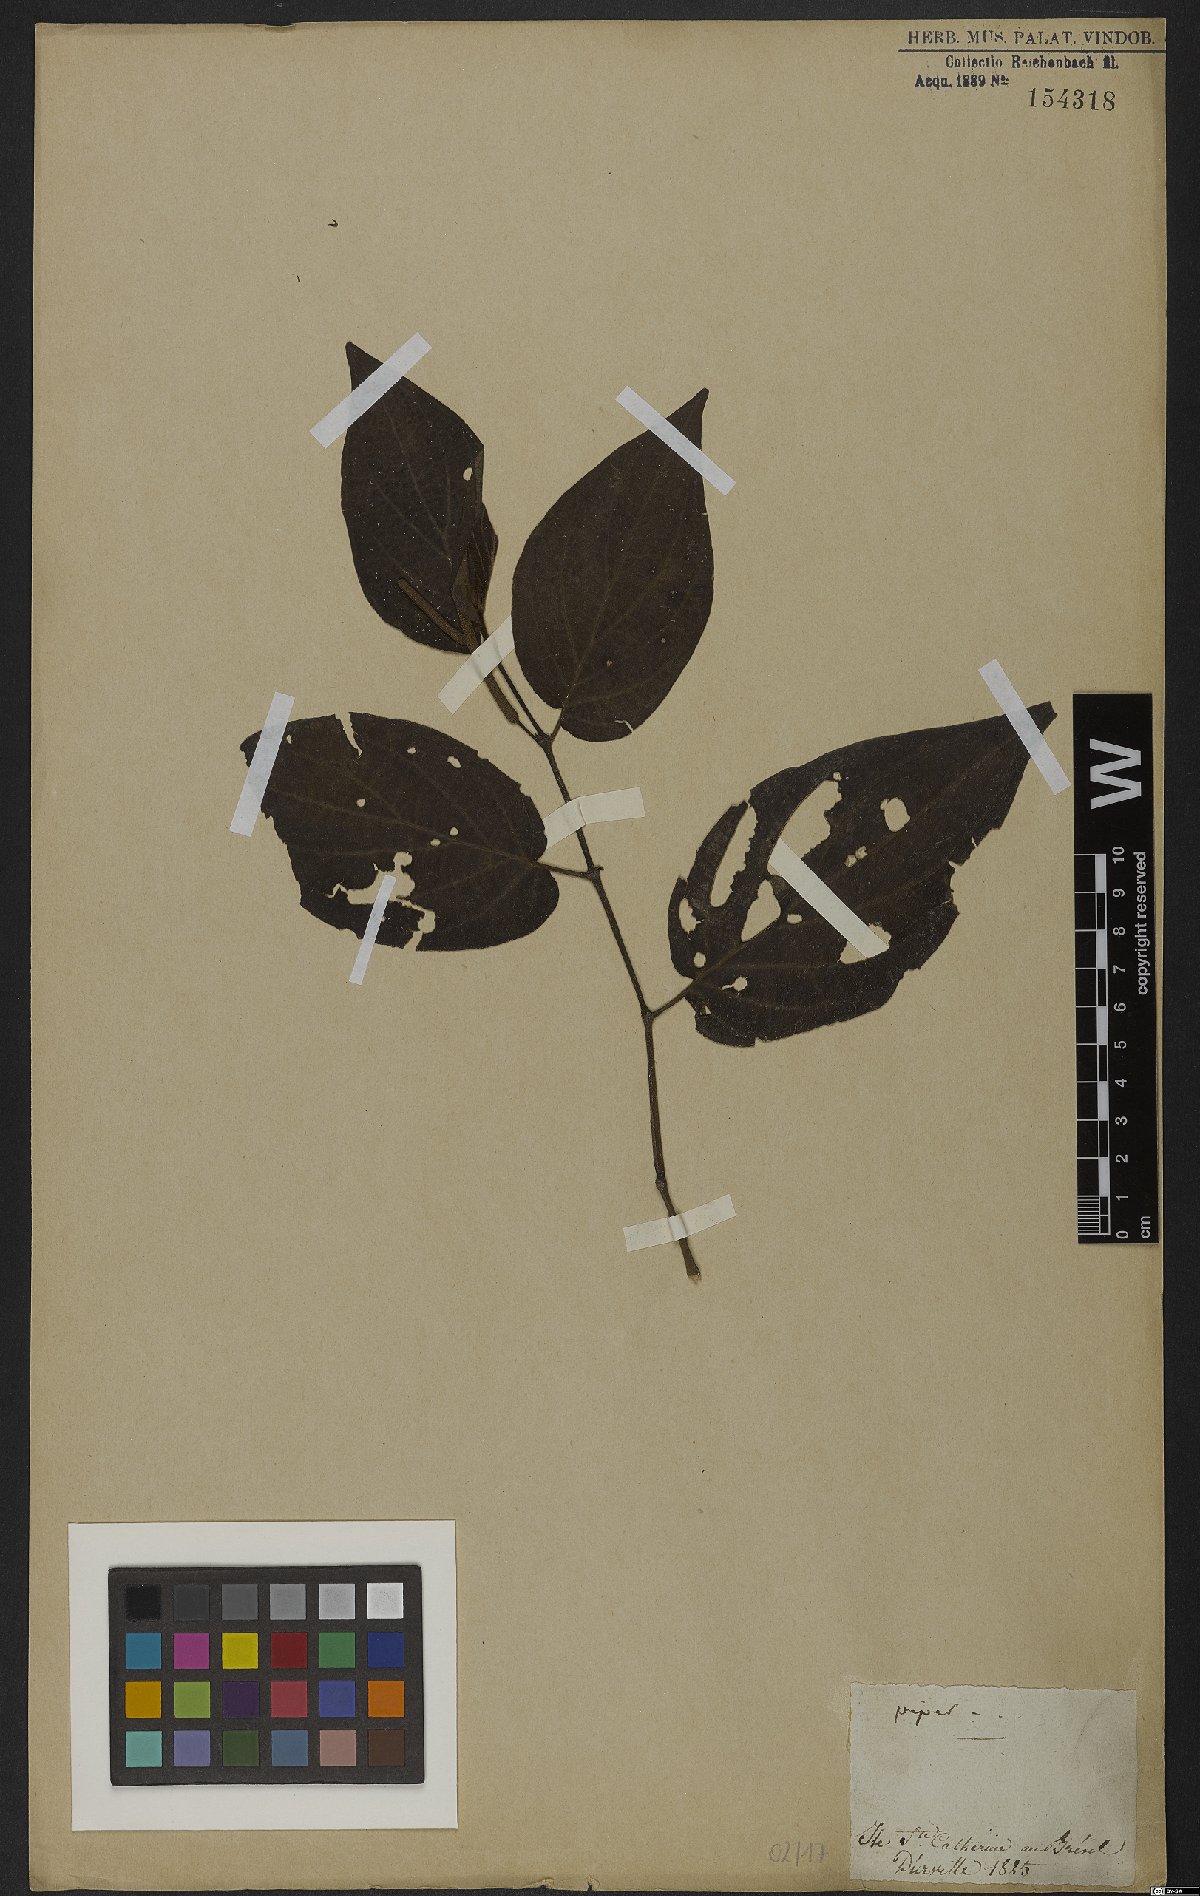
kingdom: Plantae
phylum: Tracheophyta
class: Magnoliopsida
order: Piperales
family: Piperaceae
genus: Piper
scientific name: Piper
